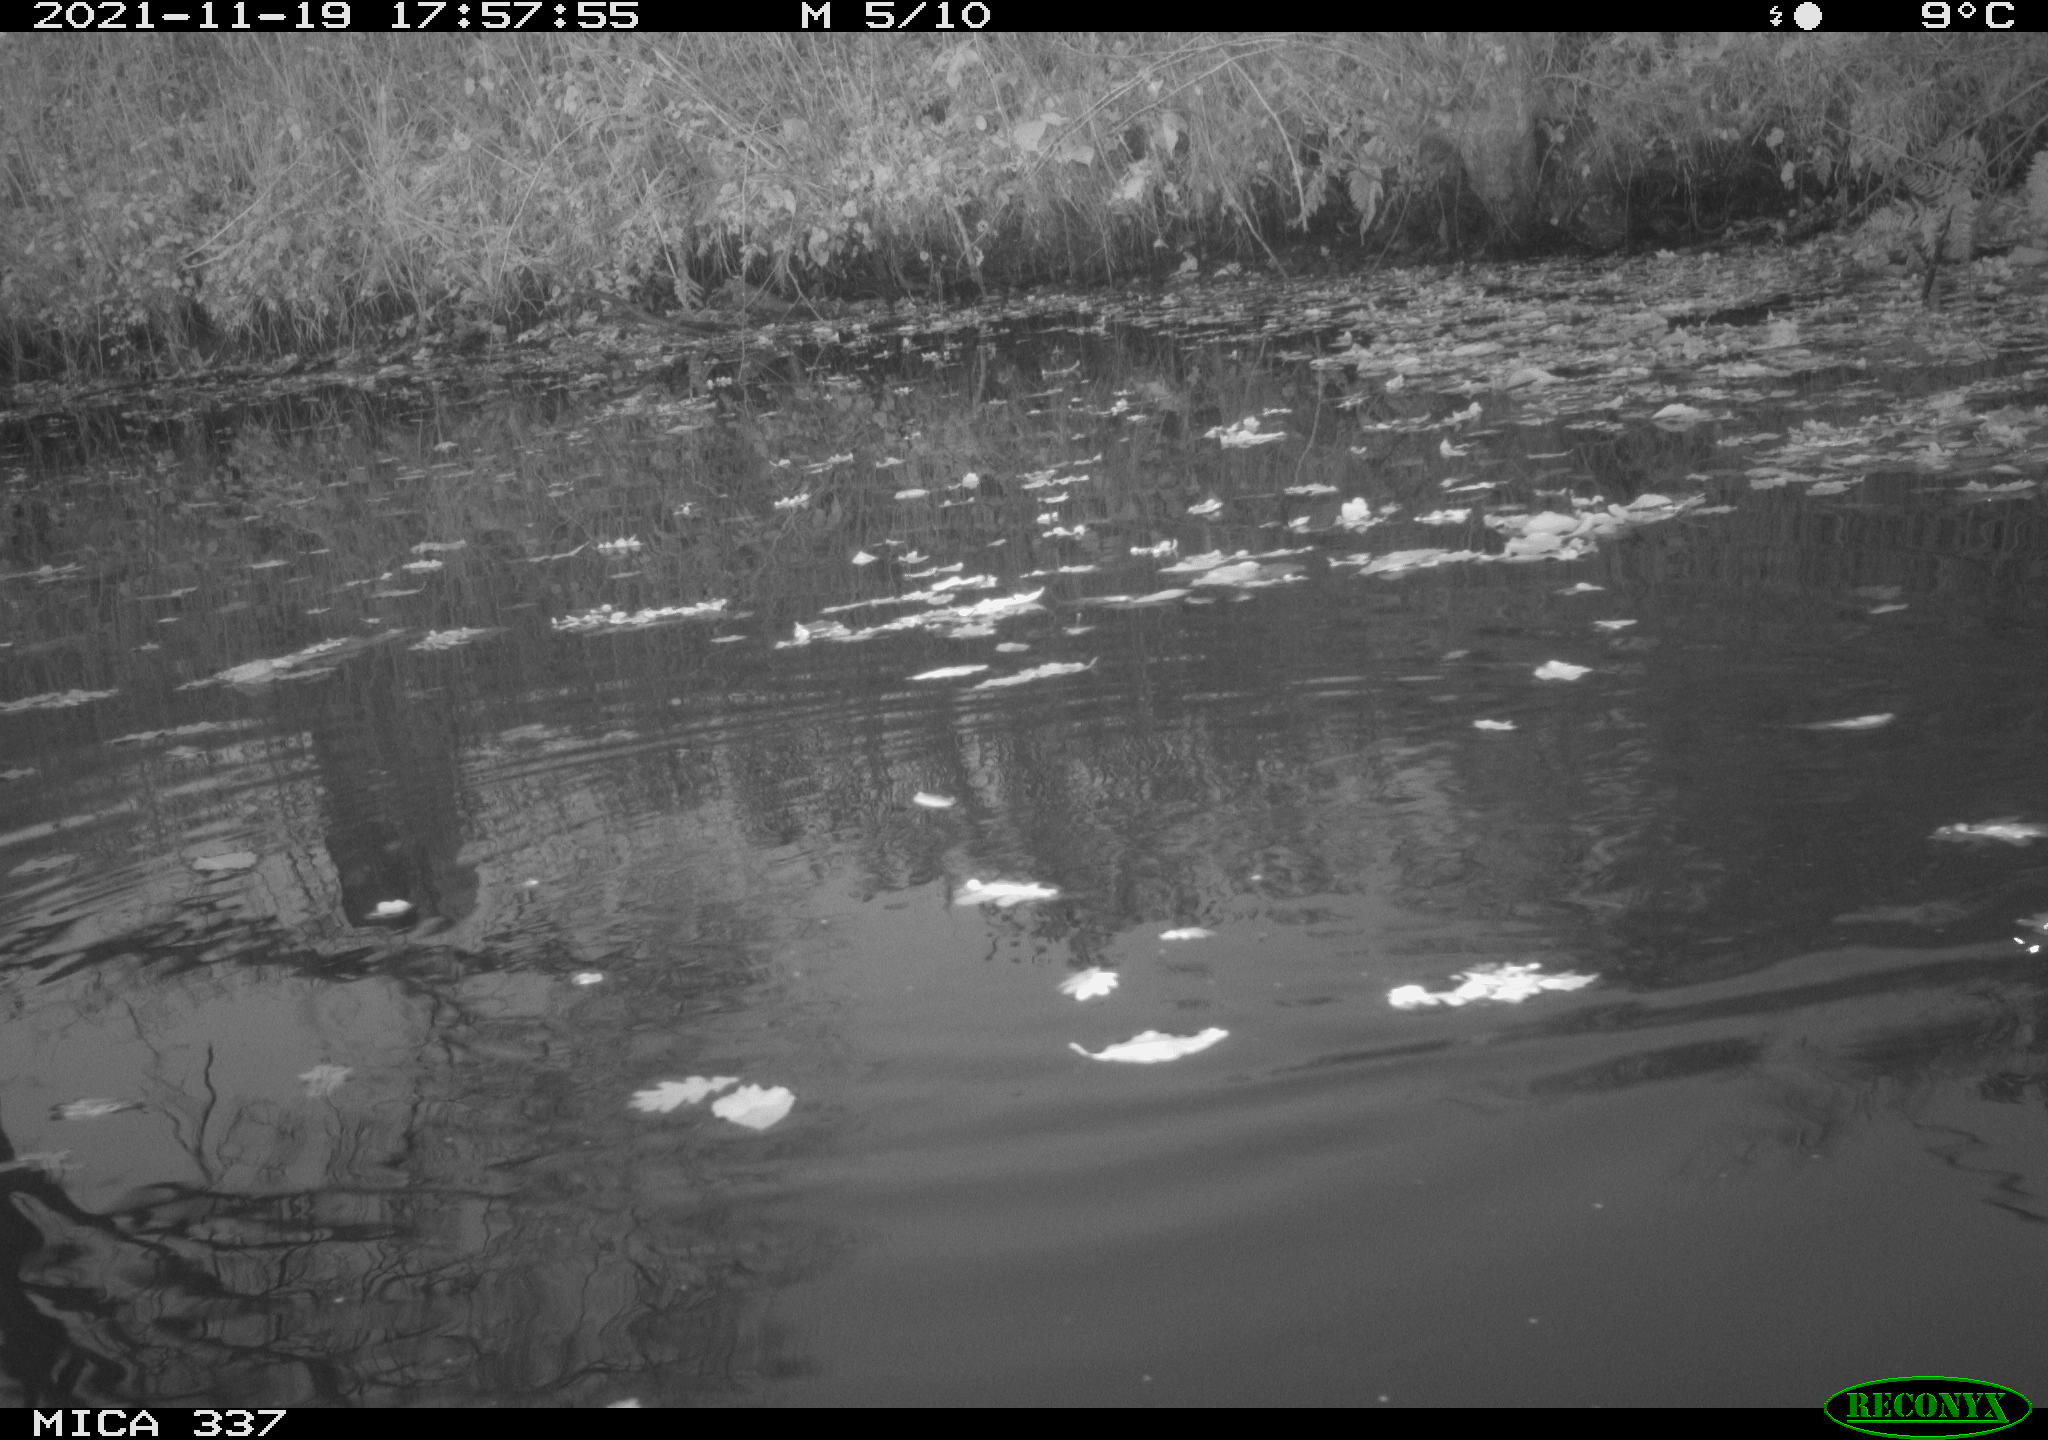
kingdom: Animalia
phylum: Chordata
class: Aves
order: Gruiformes
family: Rallidae
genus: Gallinula
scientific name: Gallinula chloropus
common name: Common moorhen
